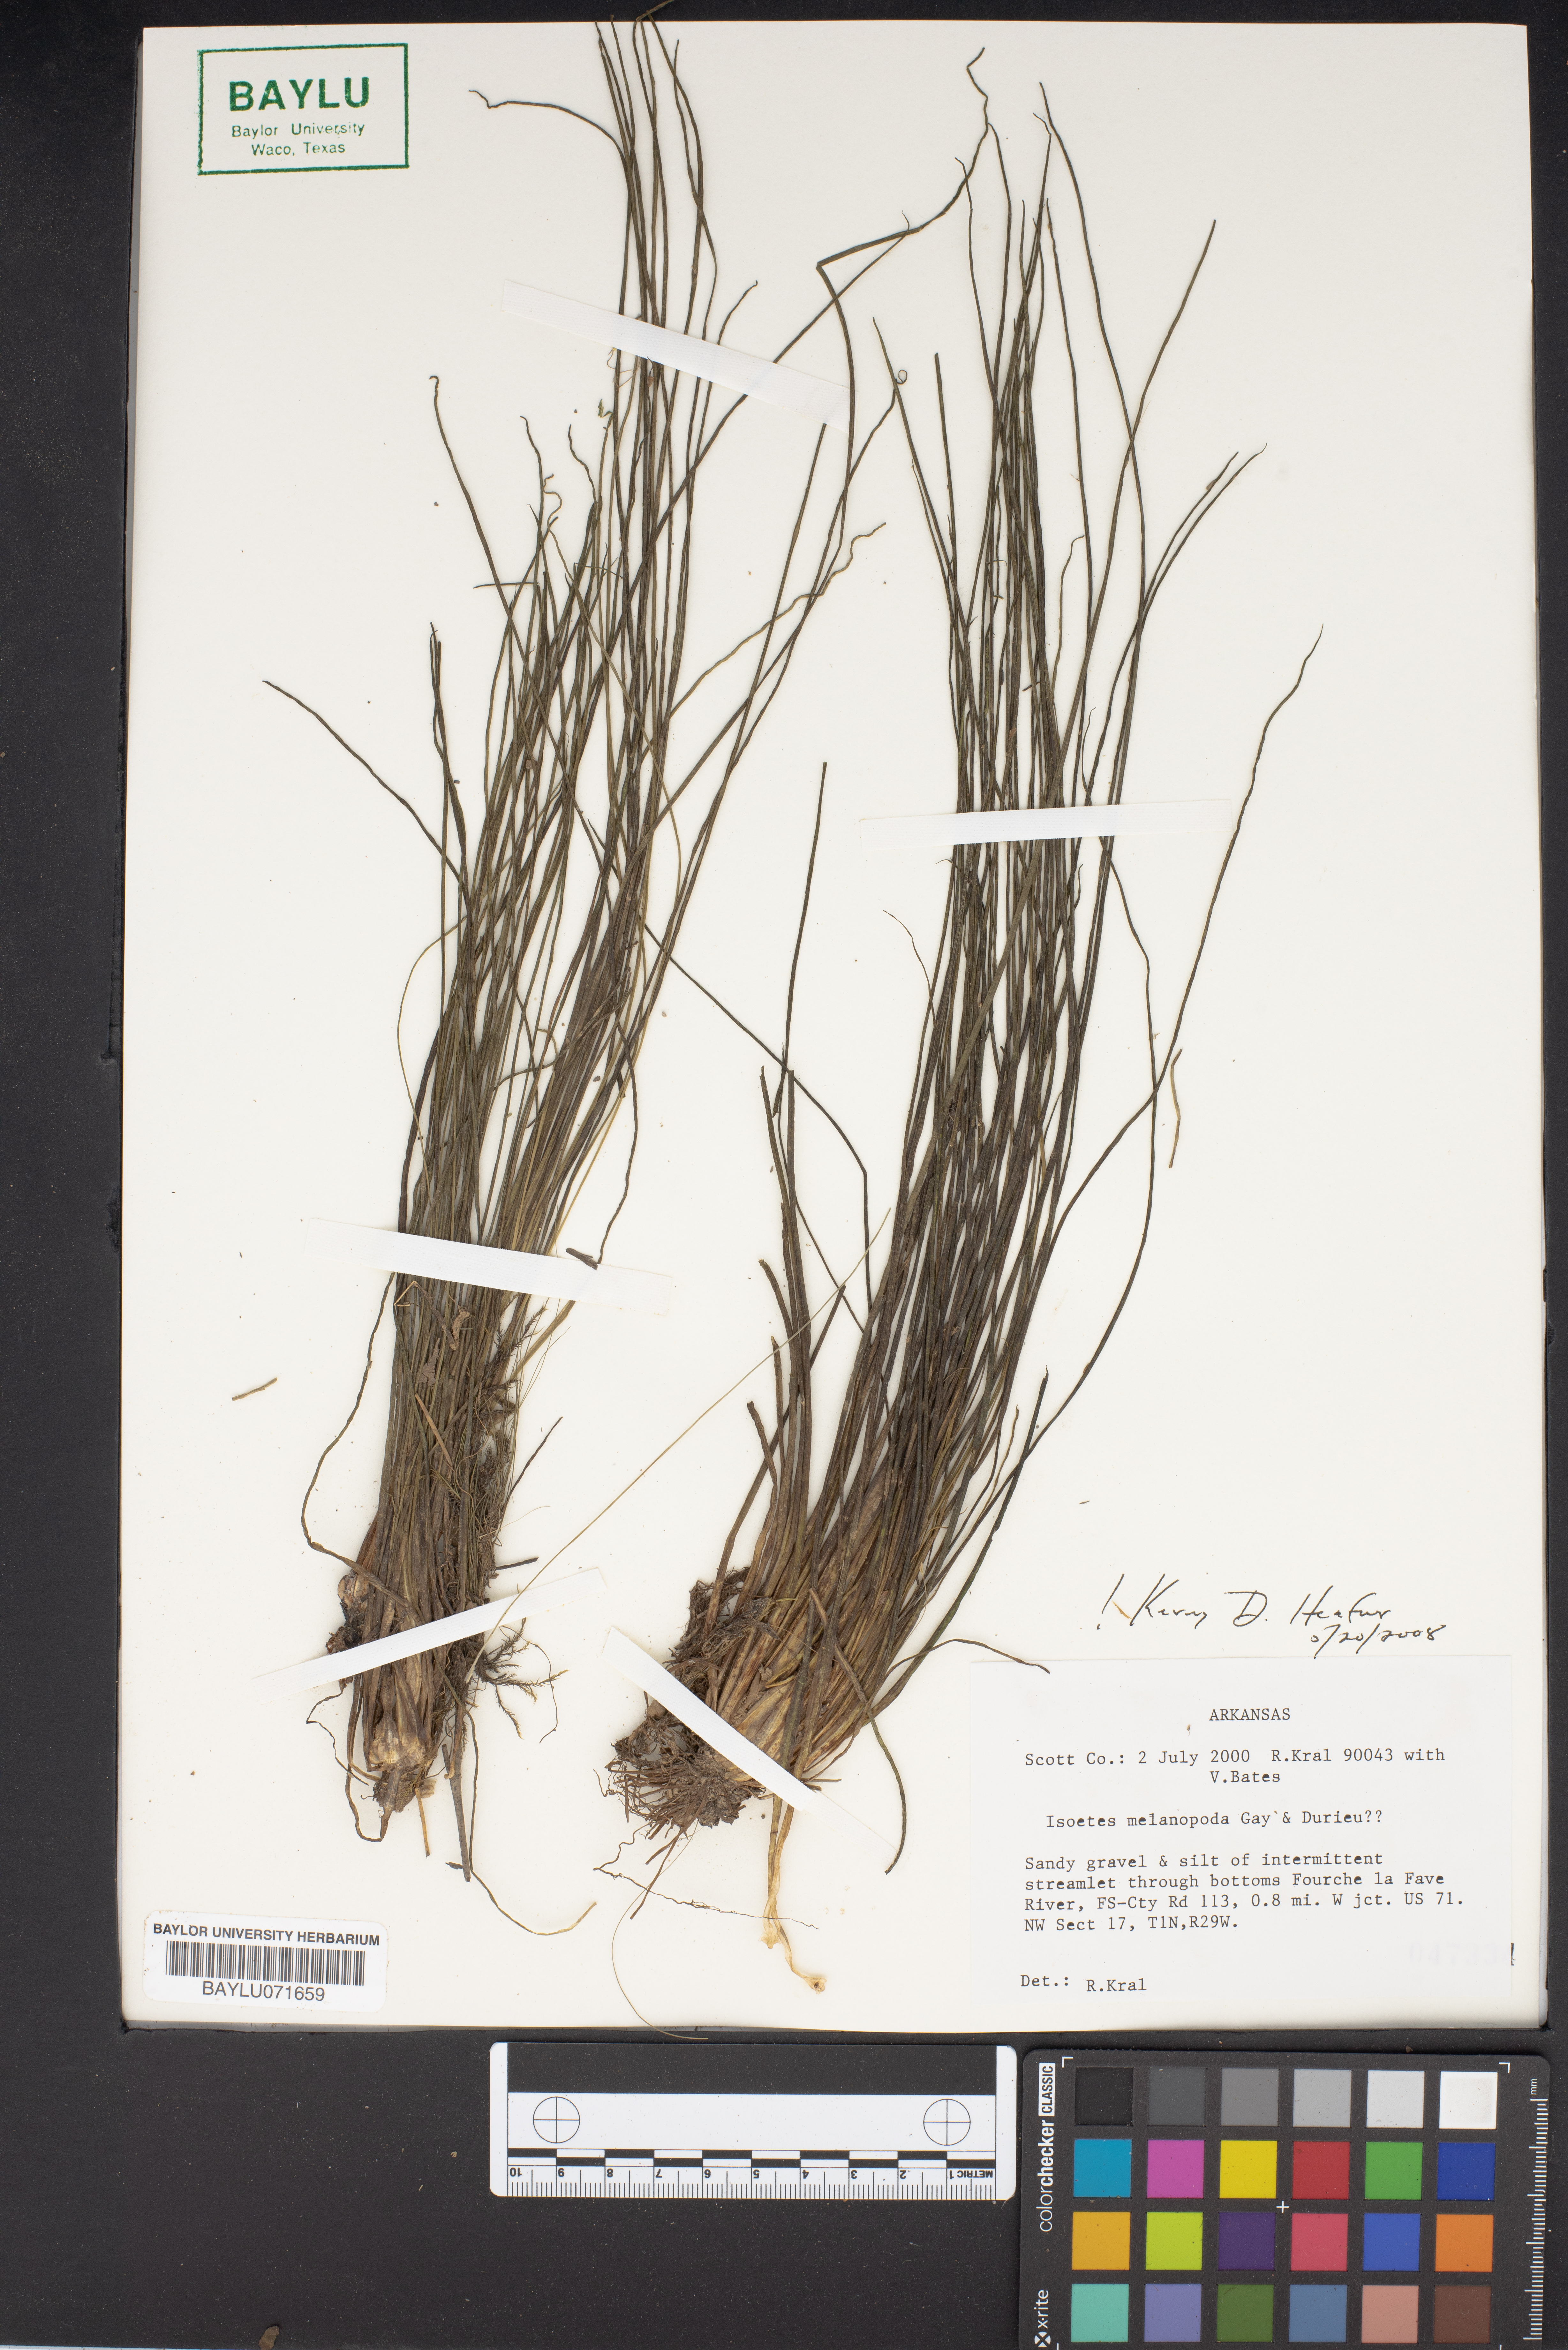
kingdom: Plantae
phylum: Tracheophyta
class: Lycopodiopsida
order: Isoetales
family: Isoetaceae
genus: Isoetes
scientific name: Isoetes melanopoda
